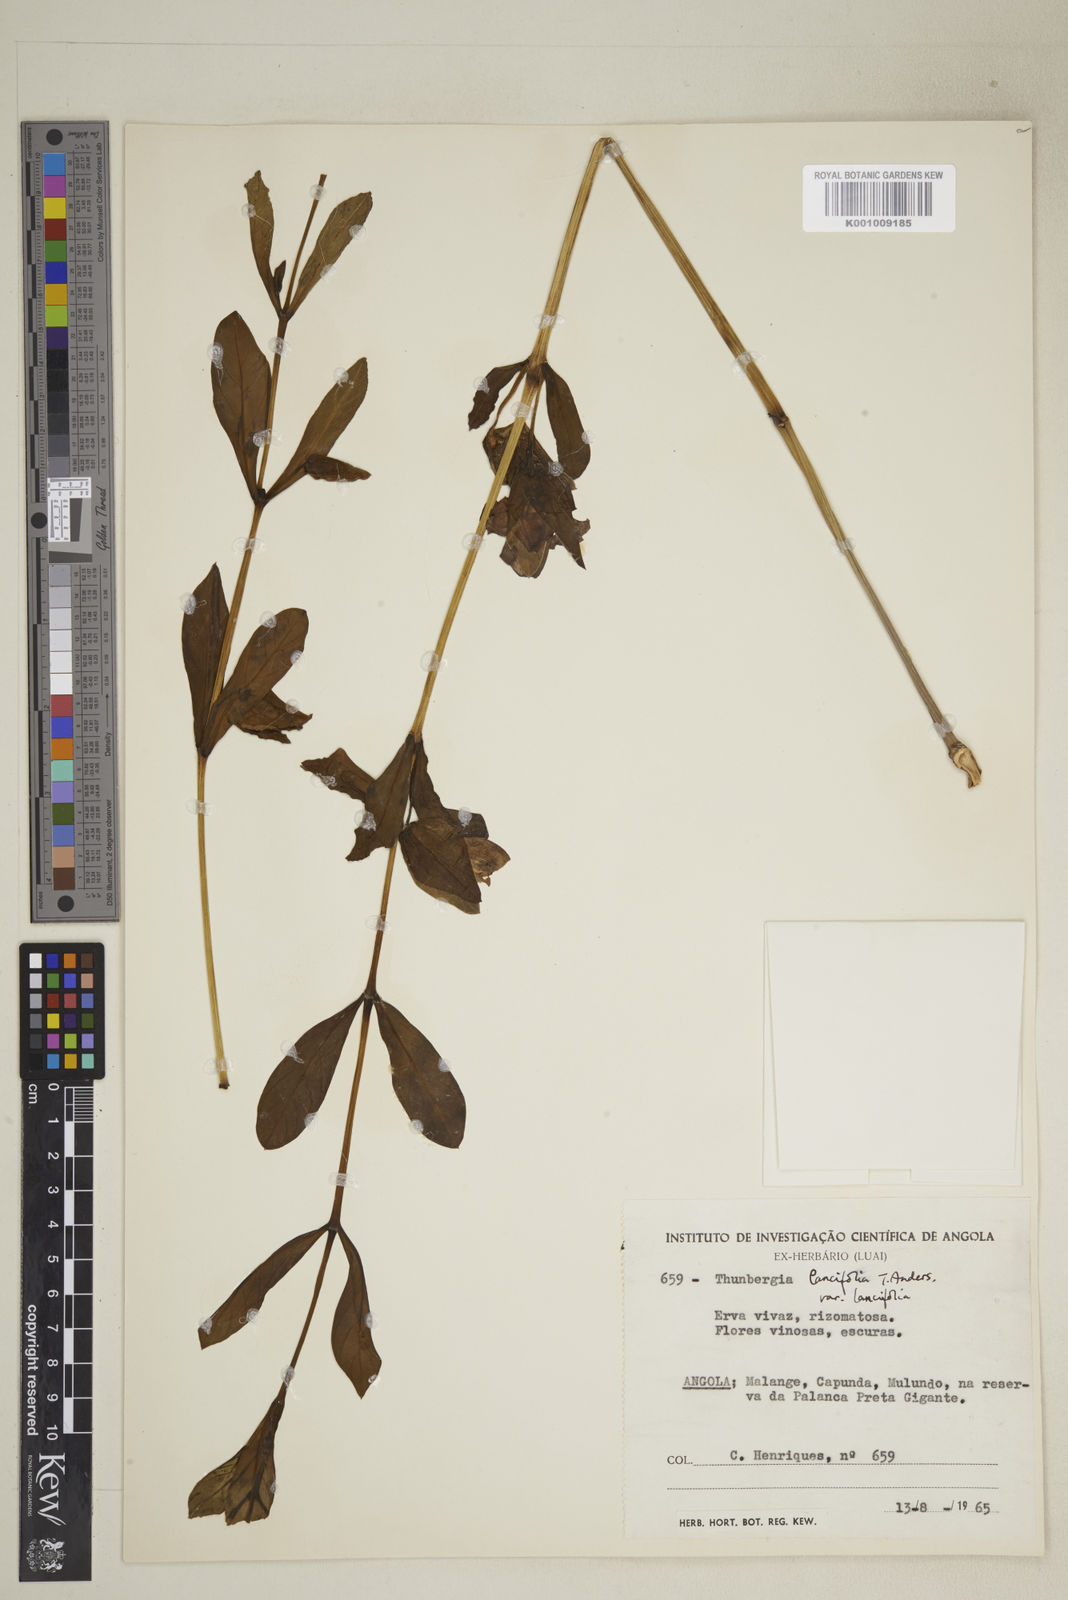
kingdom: Plantae
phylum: Tracheophyta
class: Magnoliopsida
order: Lamiales
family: Acanthaceae
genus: Thunbergia
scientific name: Thunbergia lancifolia
